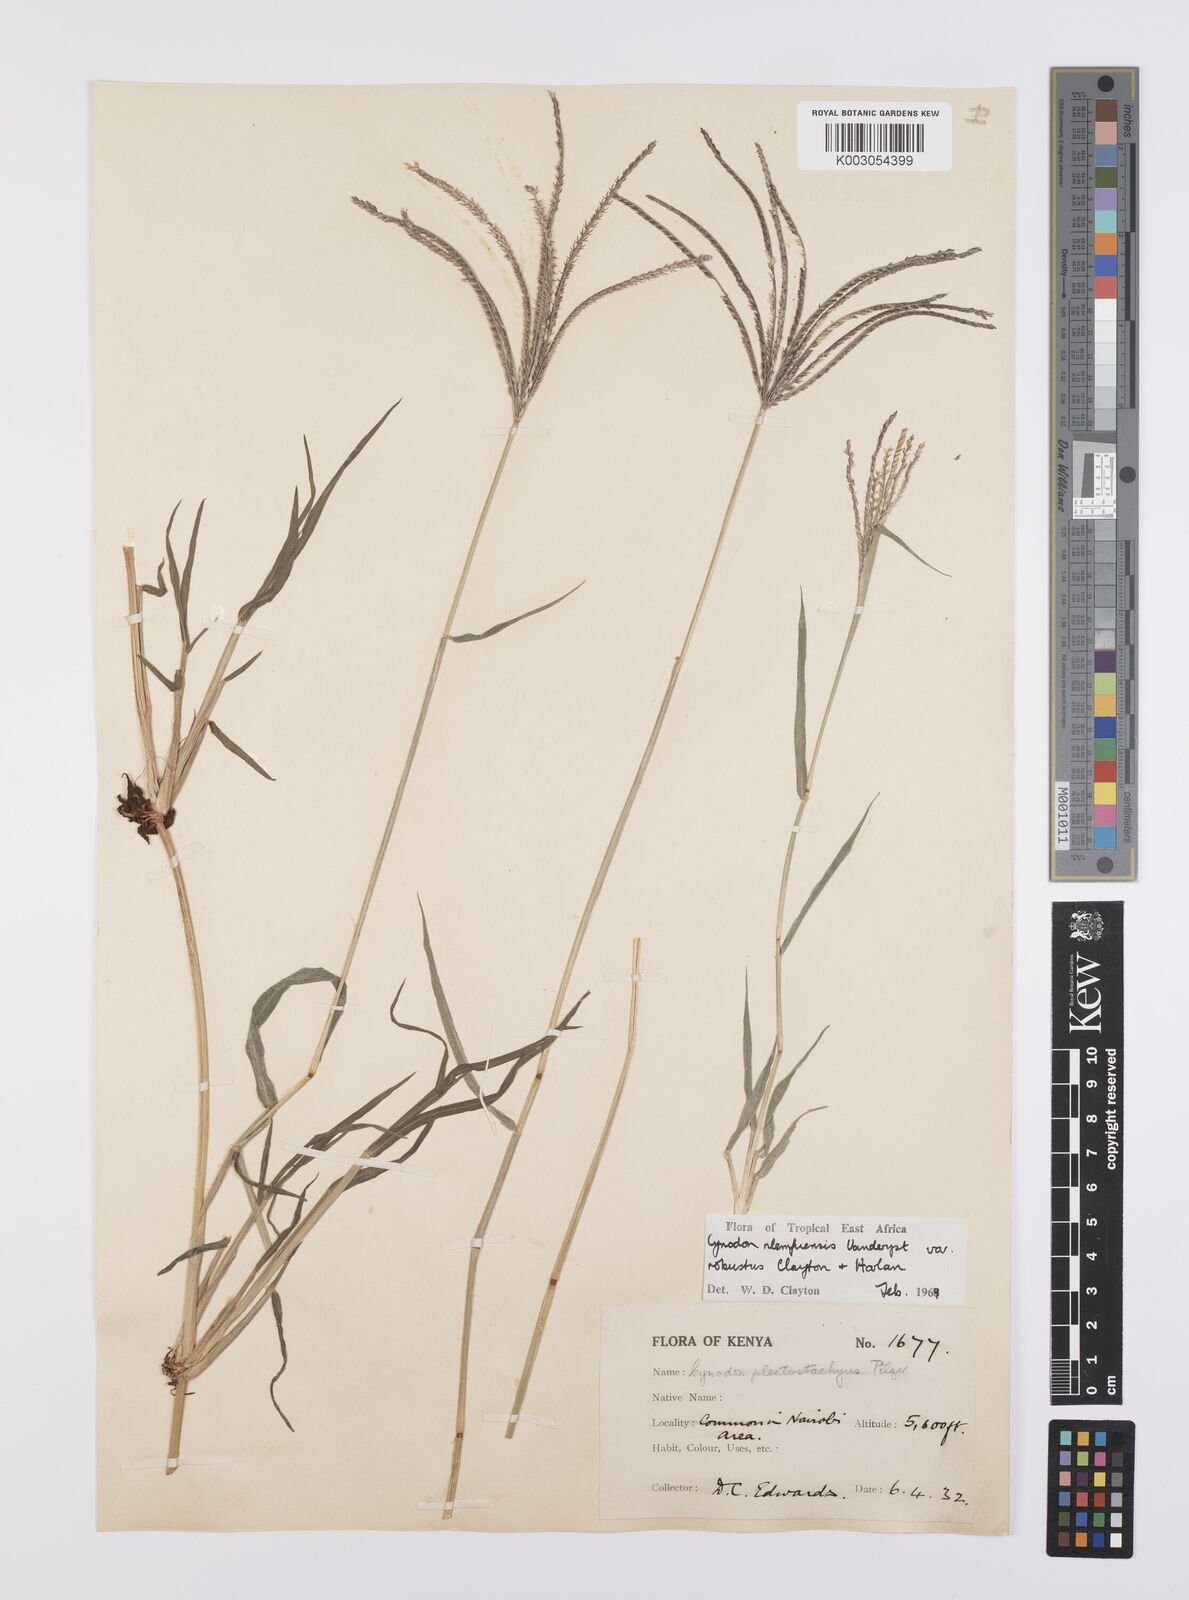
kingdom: Plantae
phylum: Tracheophyta
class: Liliopsida
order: Poales
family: Poaceae
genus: Cynodon
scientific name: Cynodon nlemfuensis
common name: African bermudagrass
